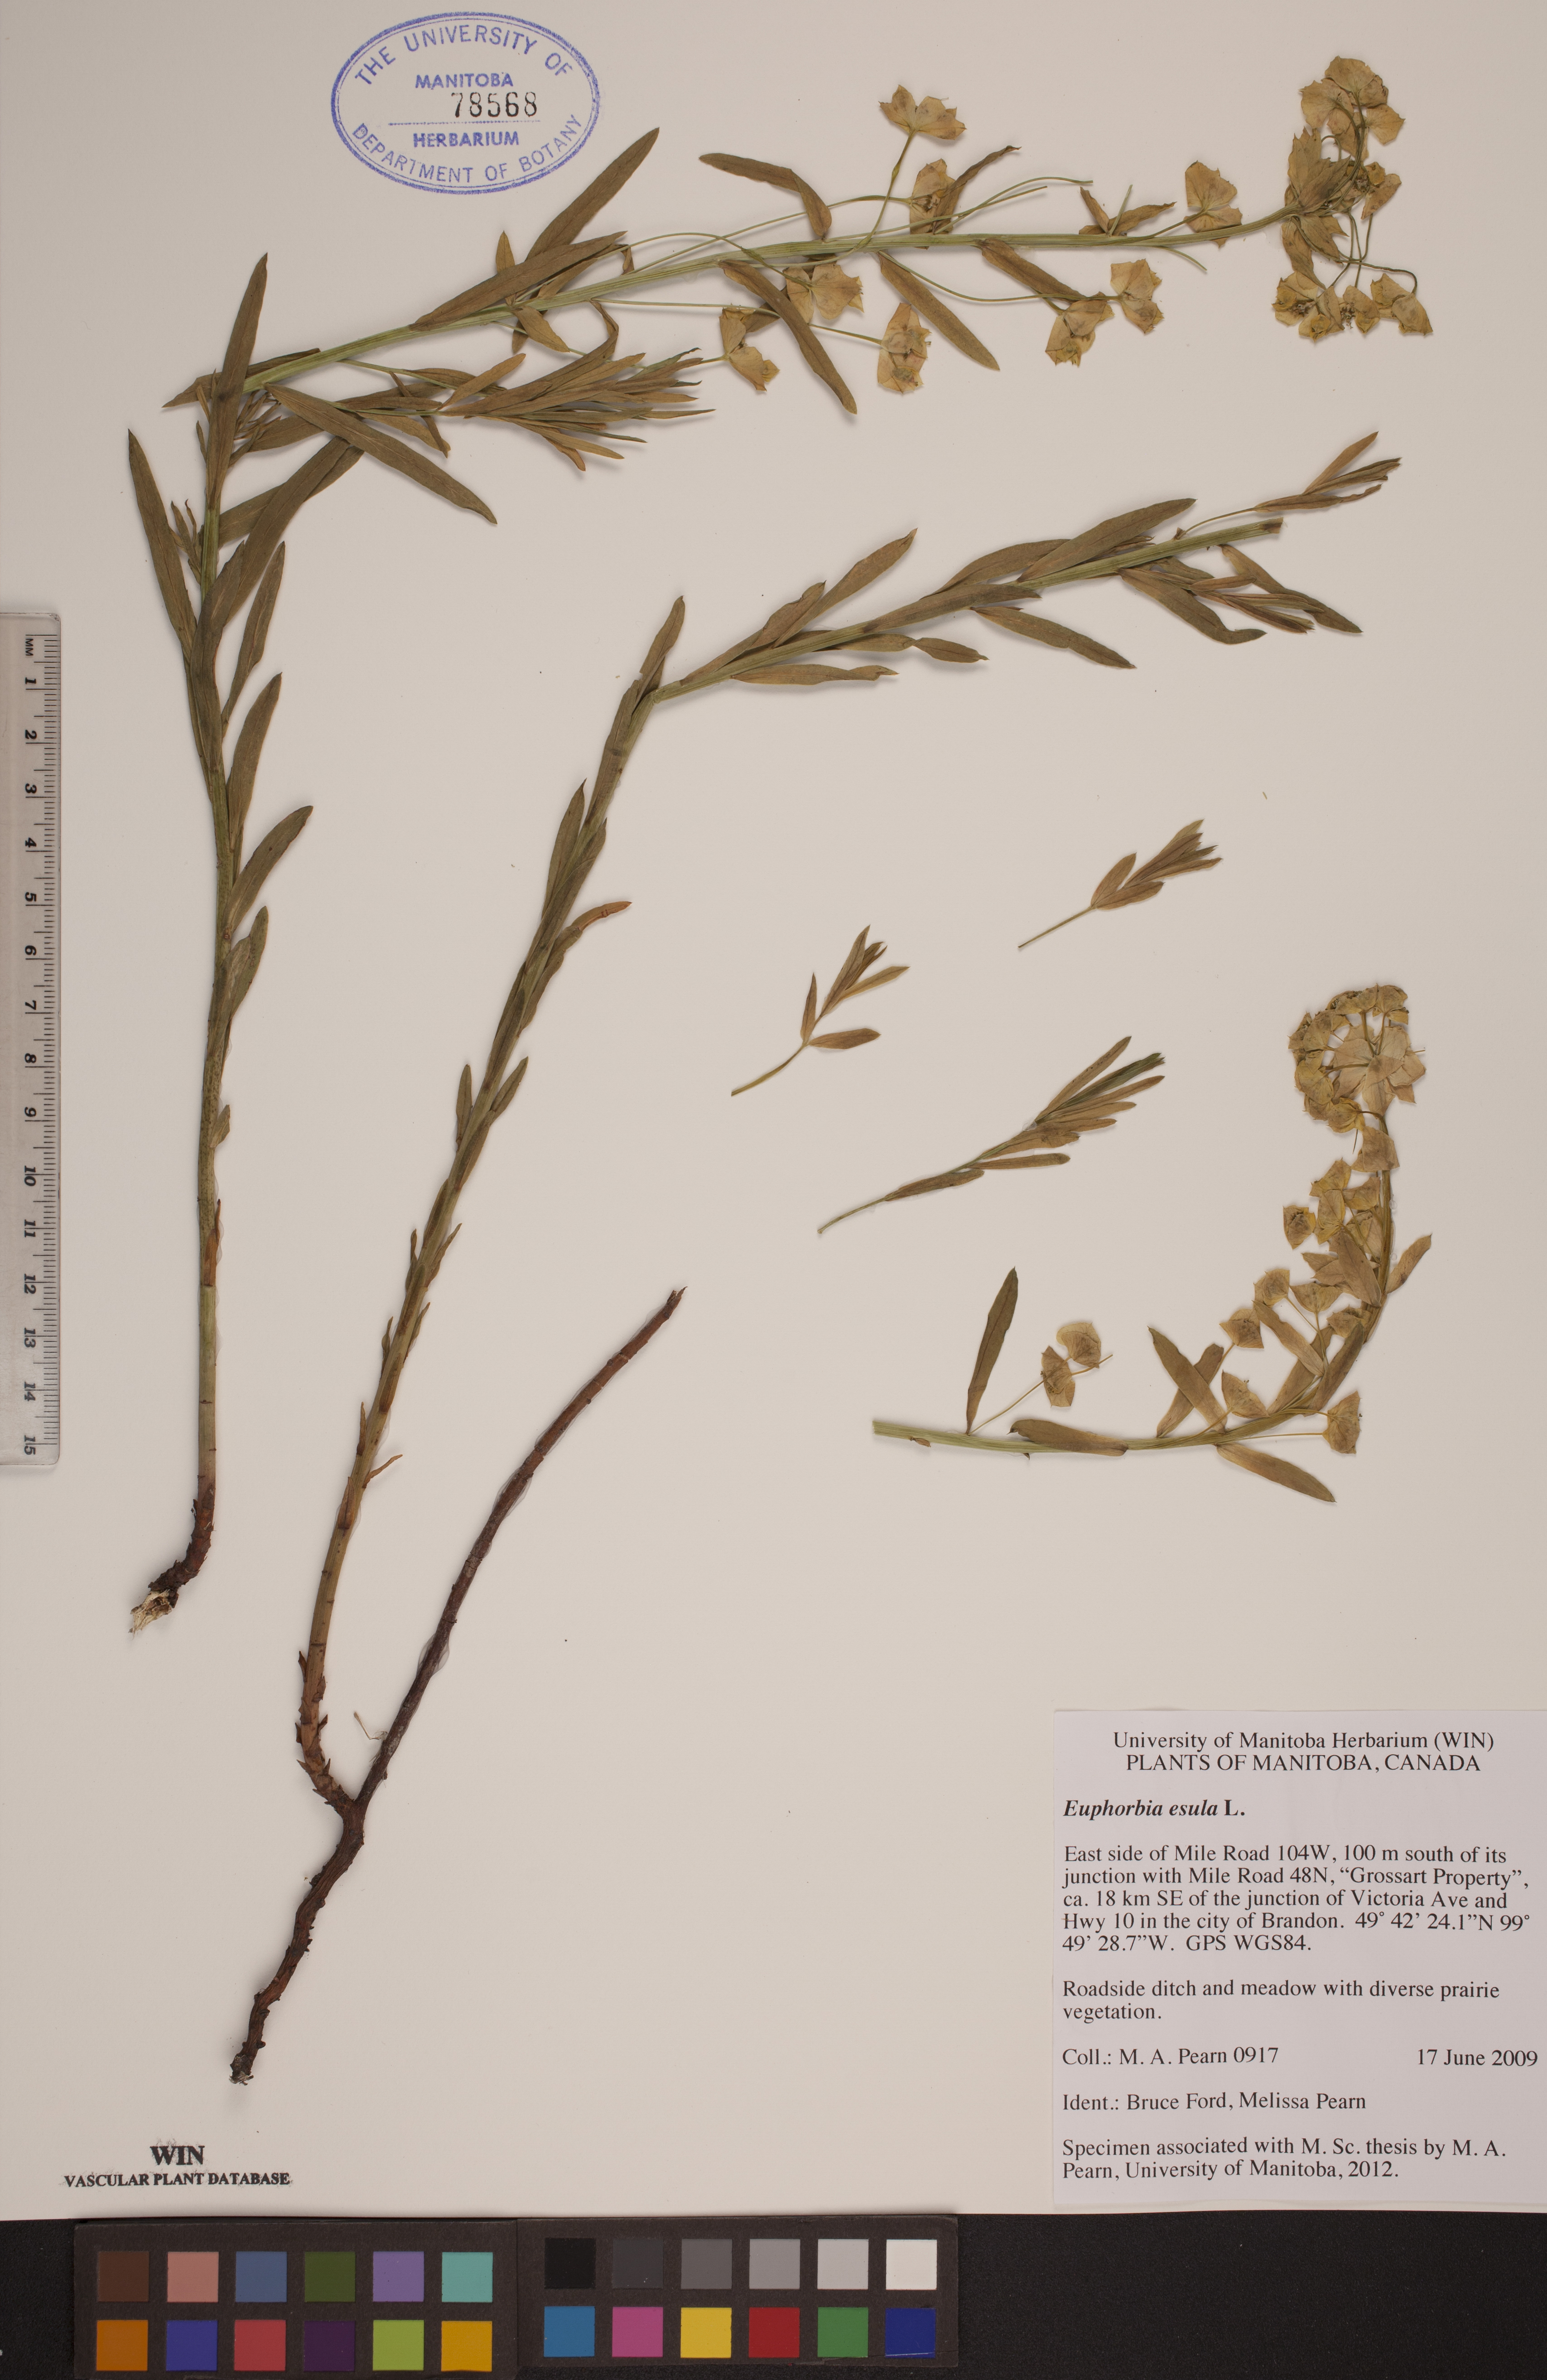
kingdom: Plantae
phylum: Tracheophyta
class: Magnoliopsida
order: Malpighiales
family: Euphorbiaceae
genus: Euphorbia
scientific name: Euphorbia esula
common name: Leafy spurge
